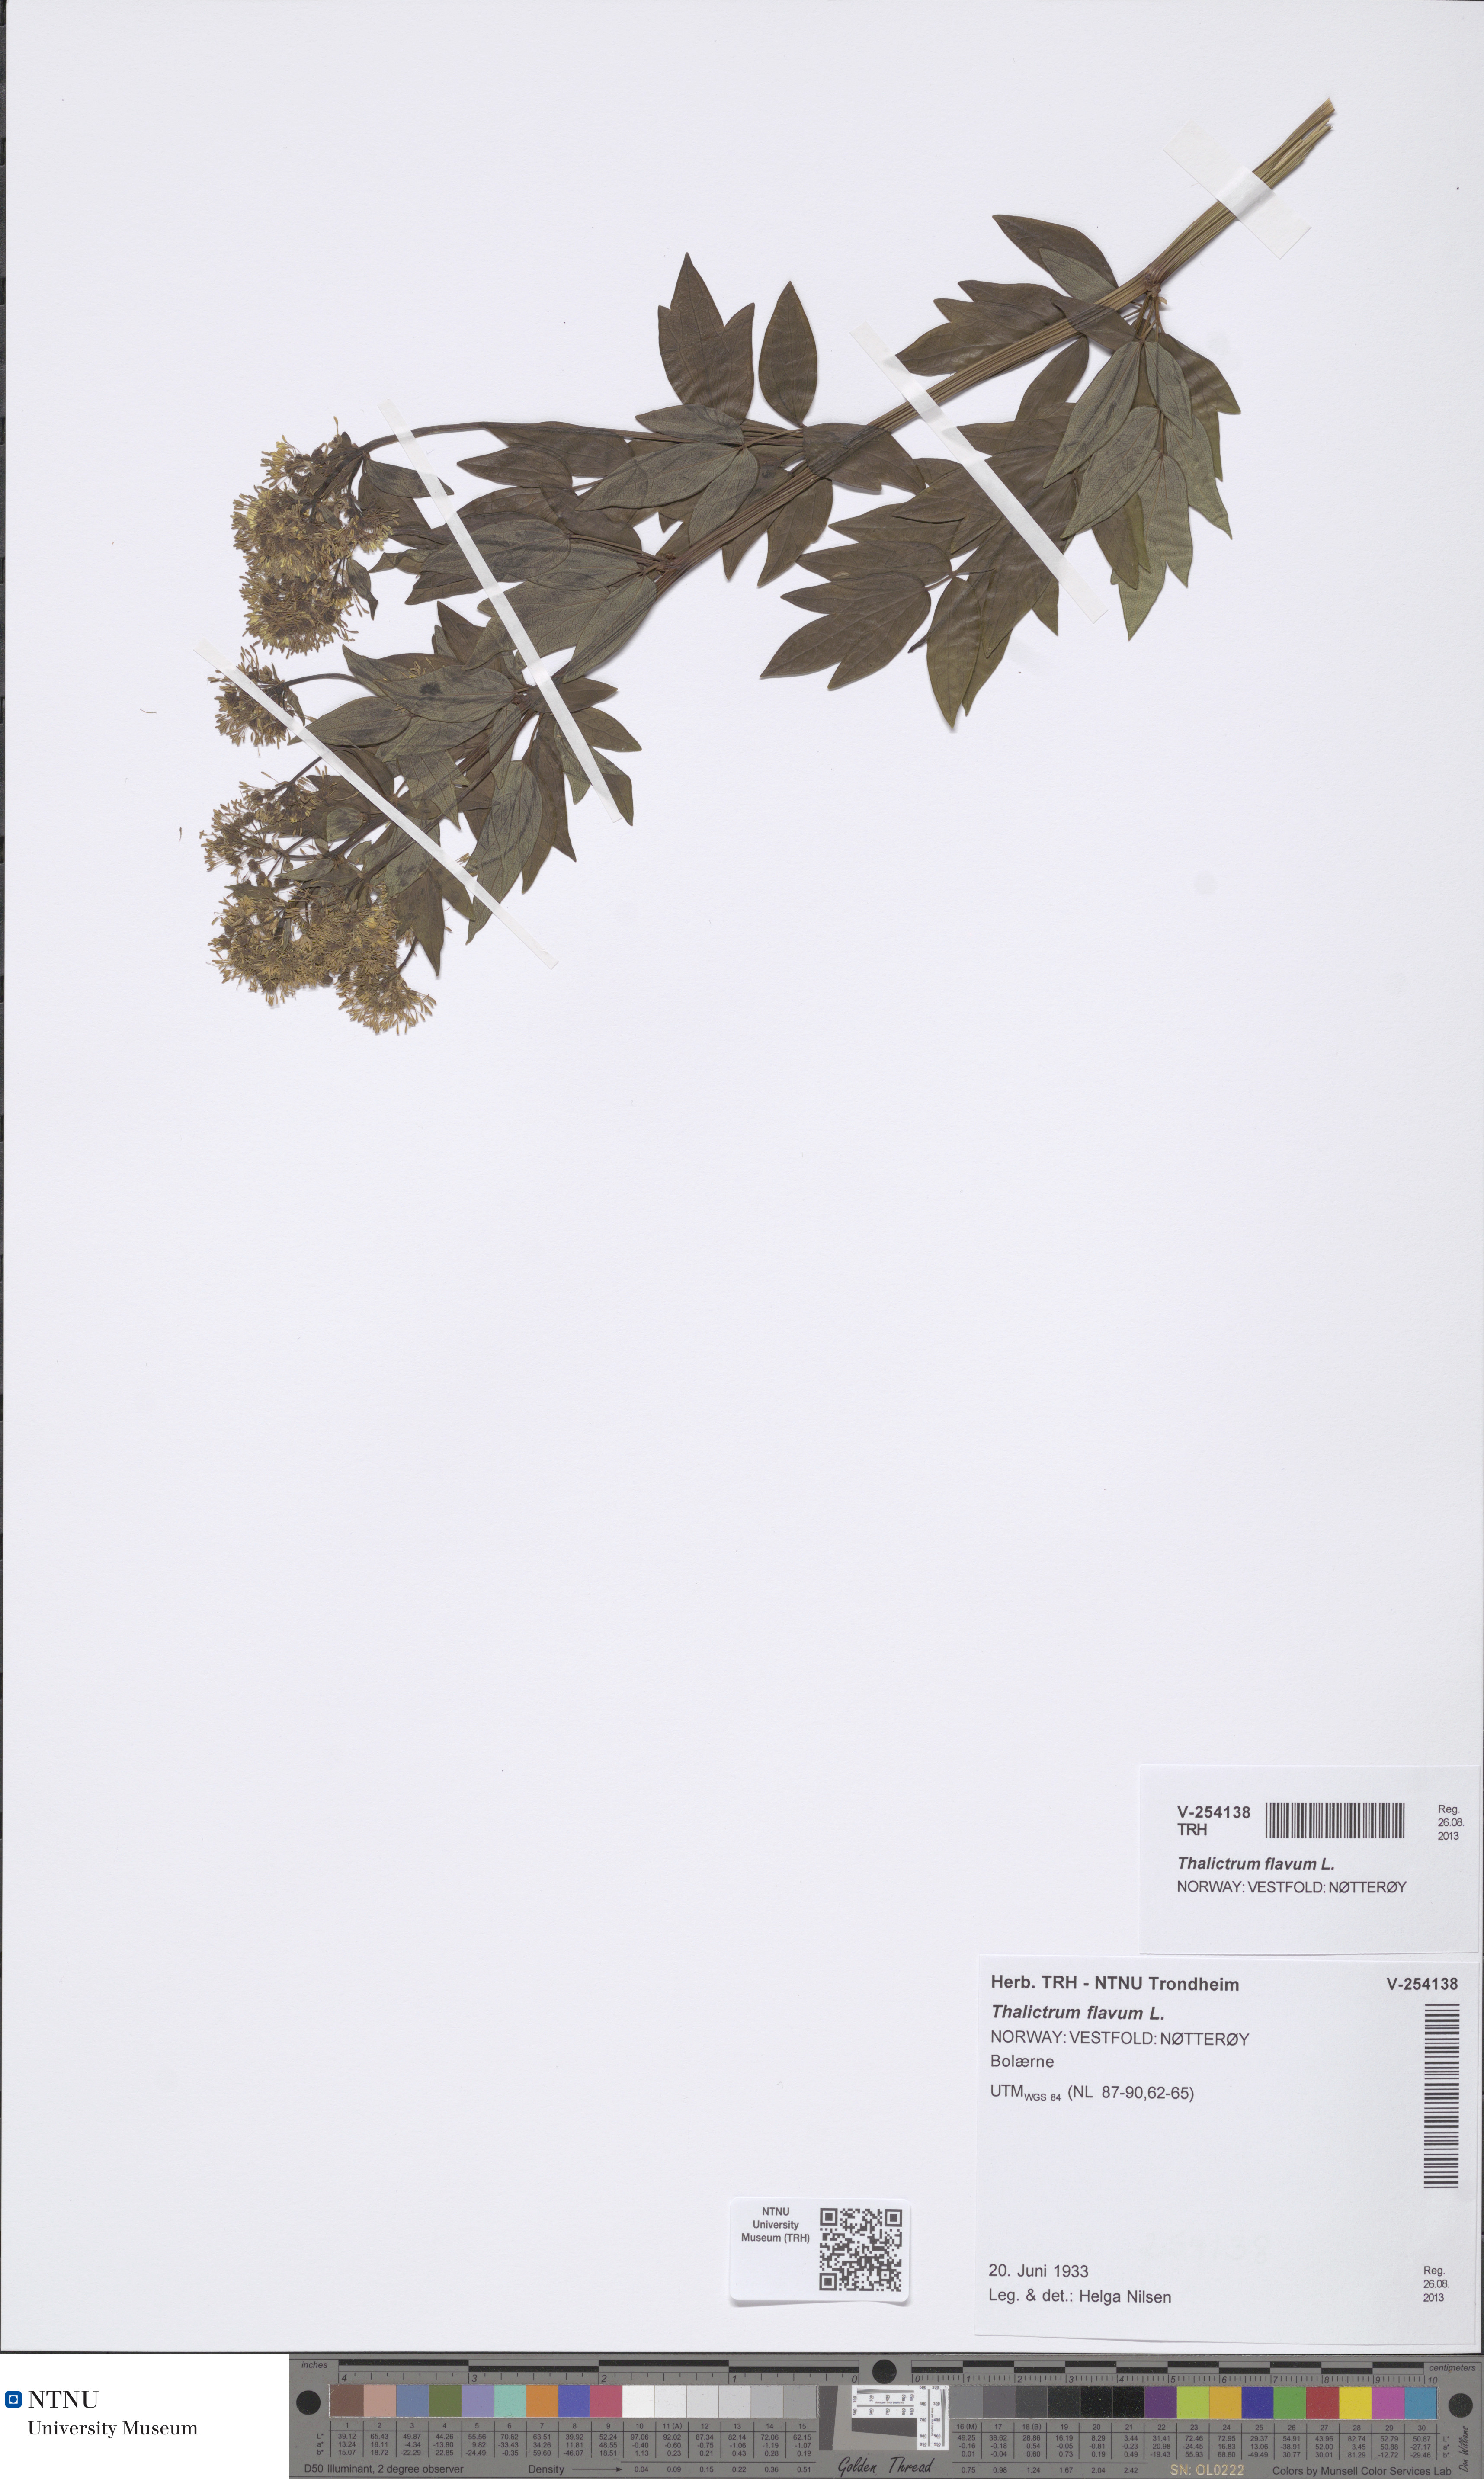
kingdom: Plantae
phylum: Tracheophyta
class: Magnoliopsida
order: Ranunculales
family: Ranunculaceae
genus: Thalictrum
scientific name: Thalictrum flavum
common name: Common meadow-rue
